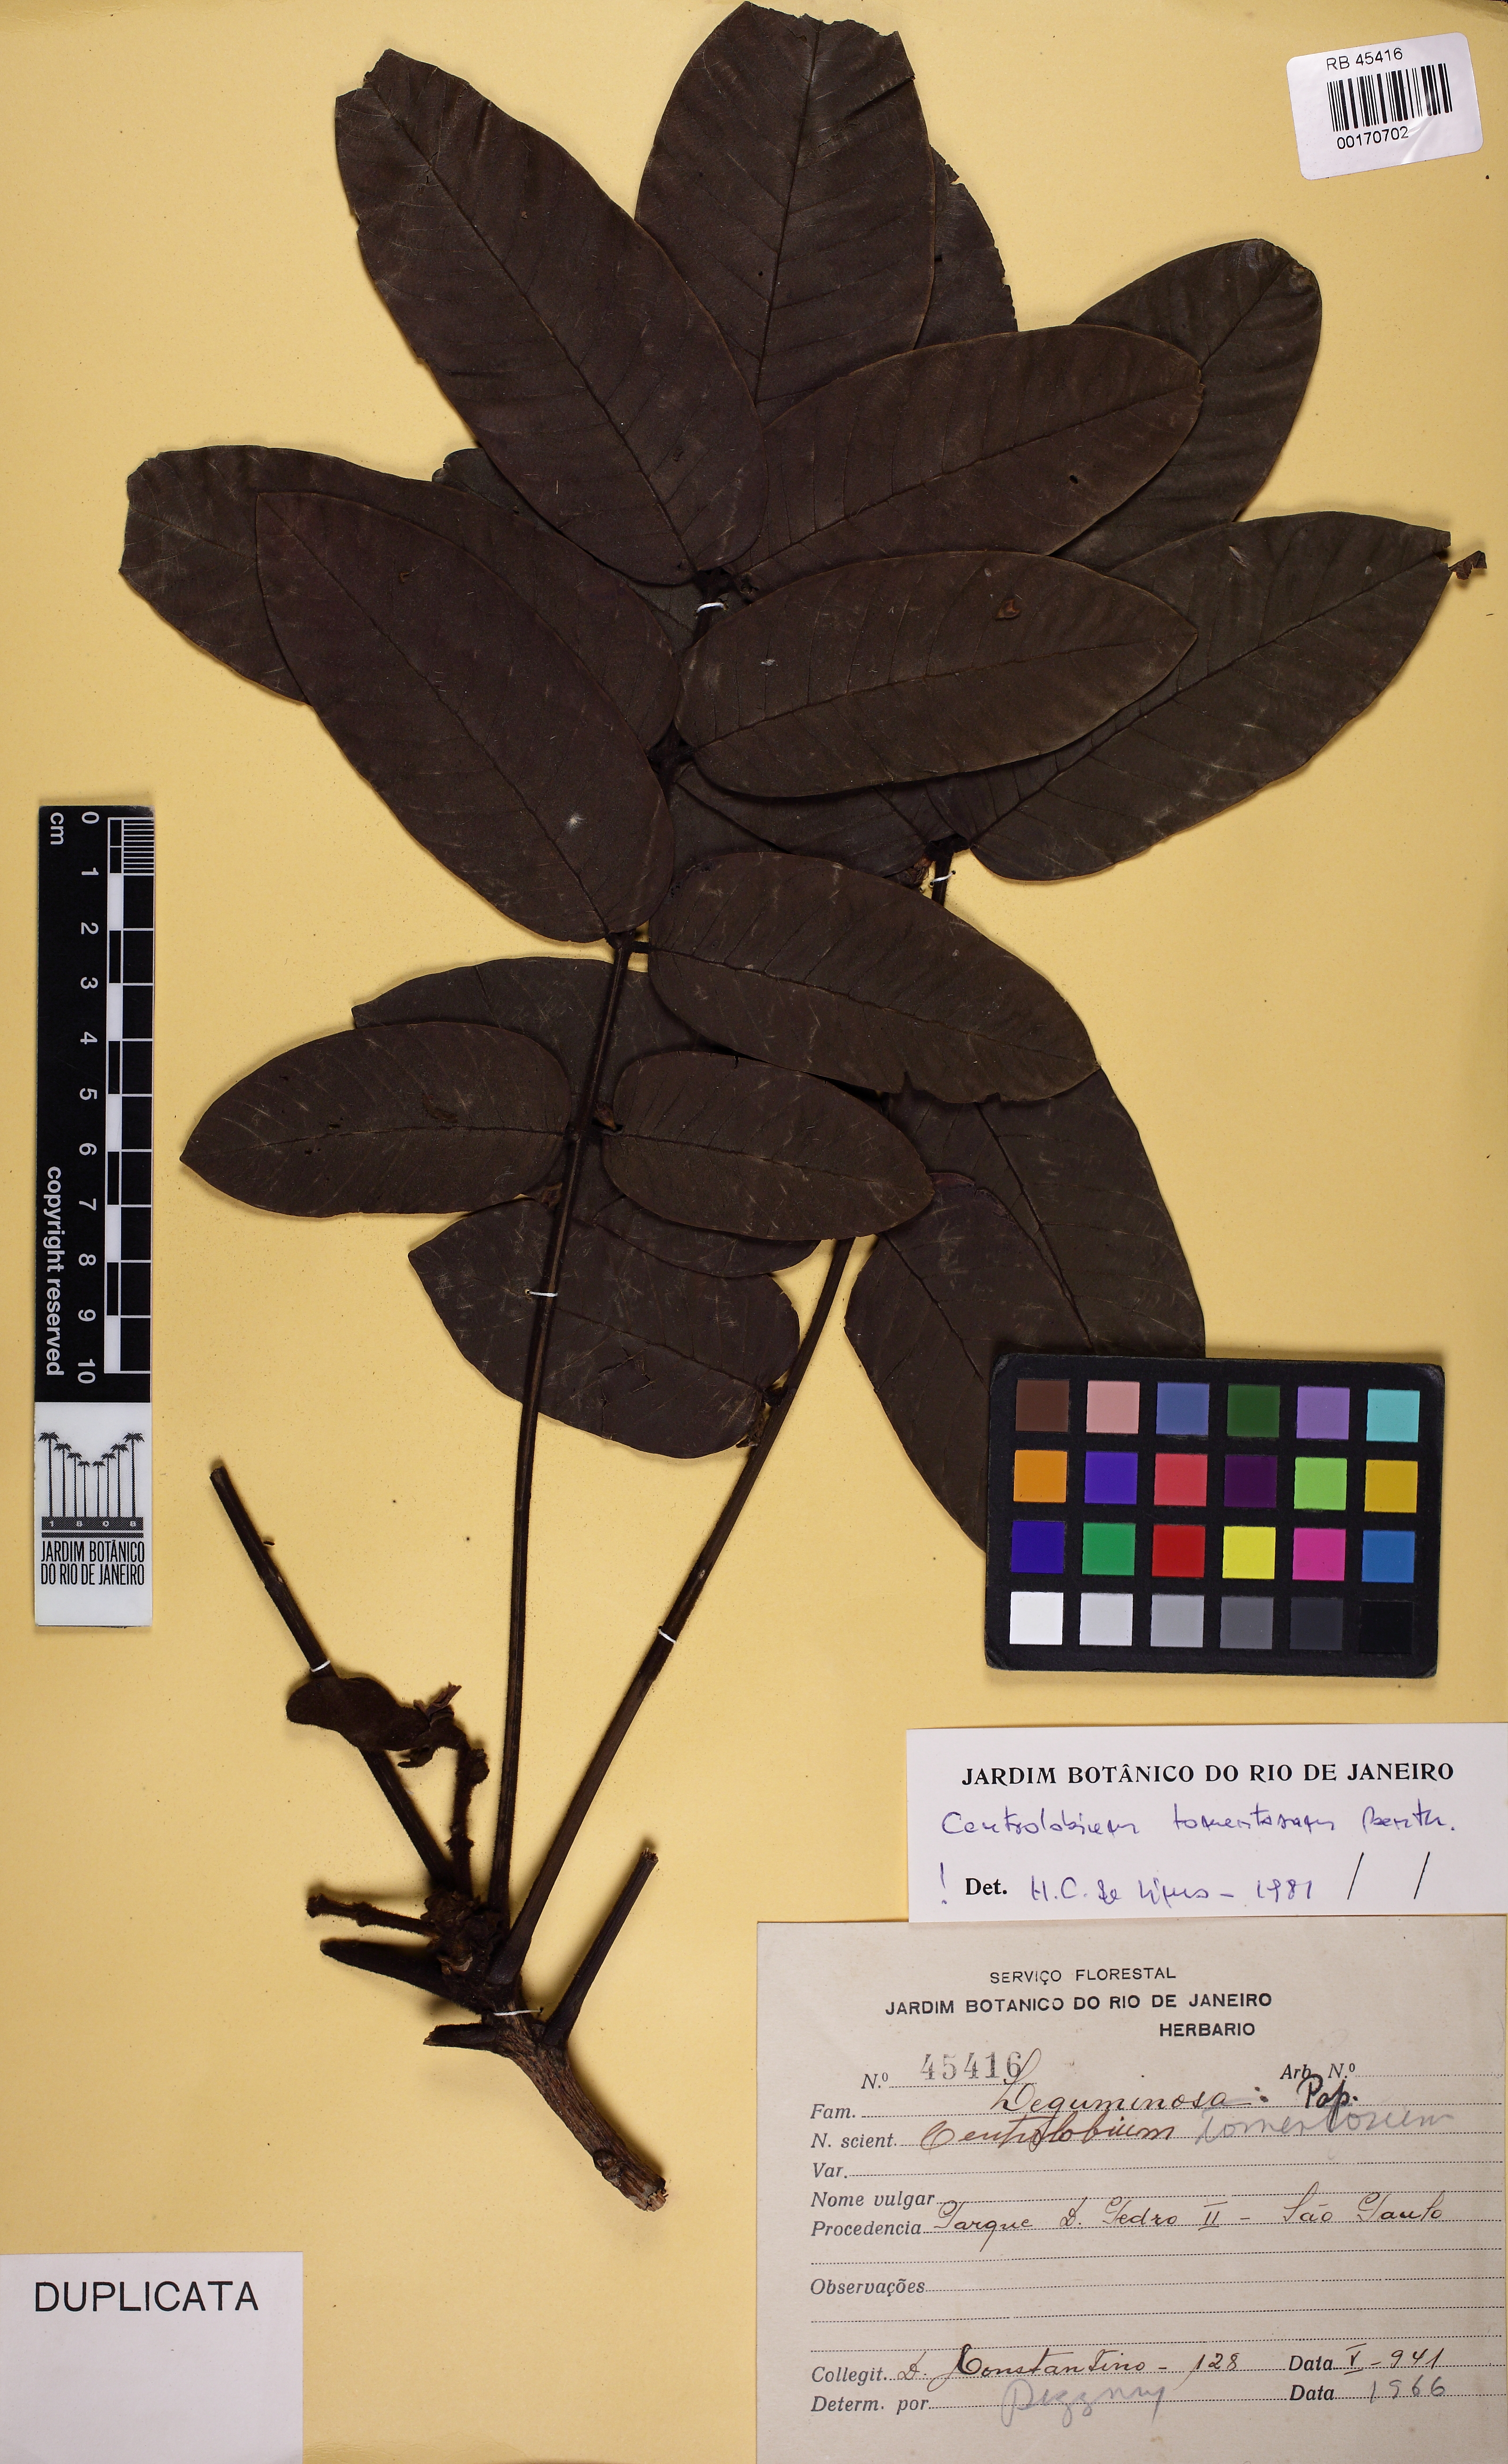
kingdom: Plantae
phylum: Tracheophyta
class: Magnoliopsida
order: Fabales
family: Fabaceae
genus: Centrolobium
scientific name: Centrolobium tomentosum
